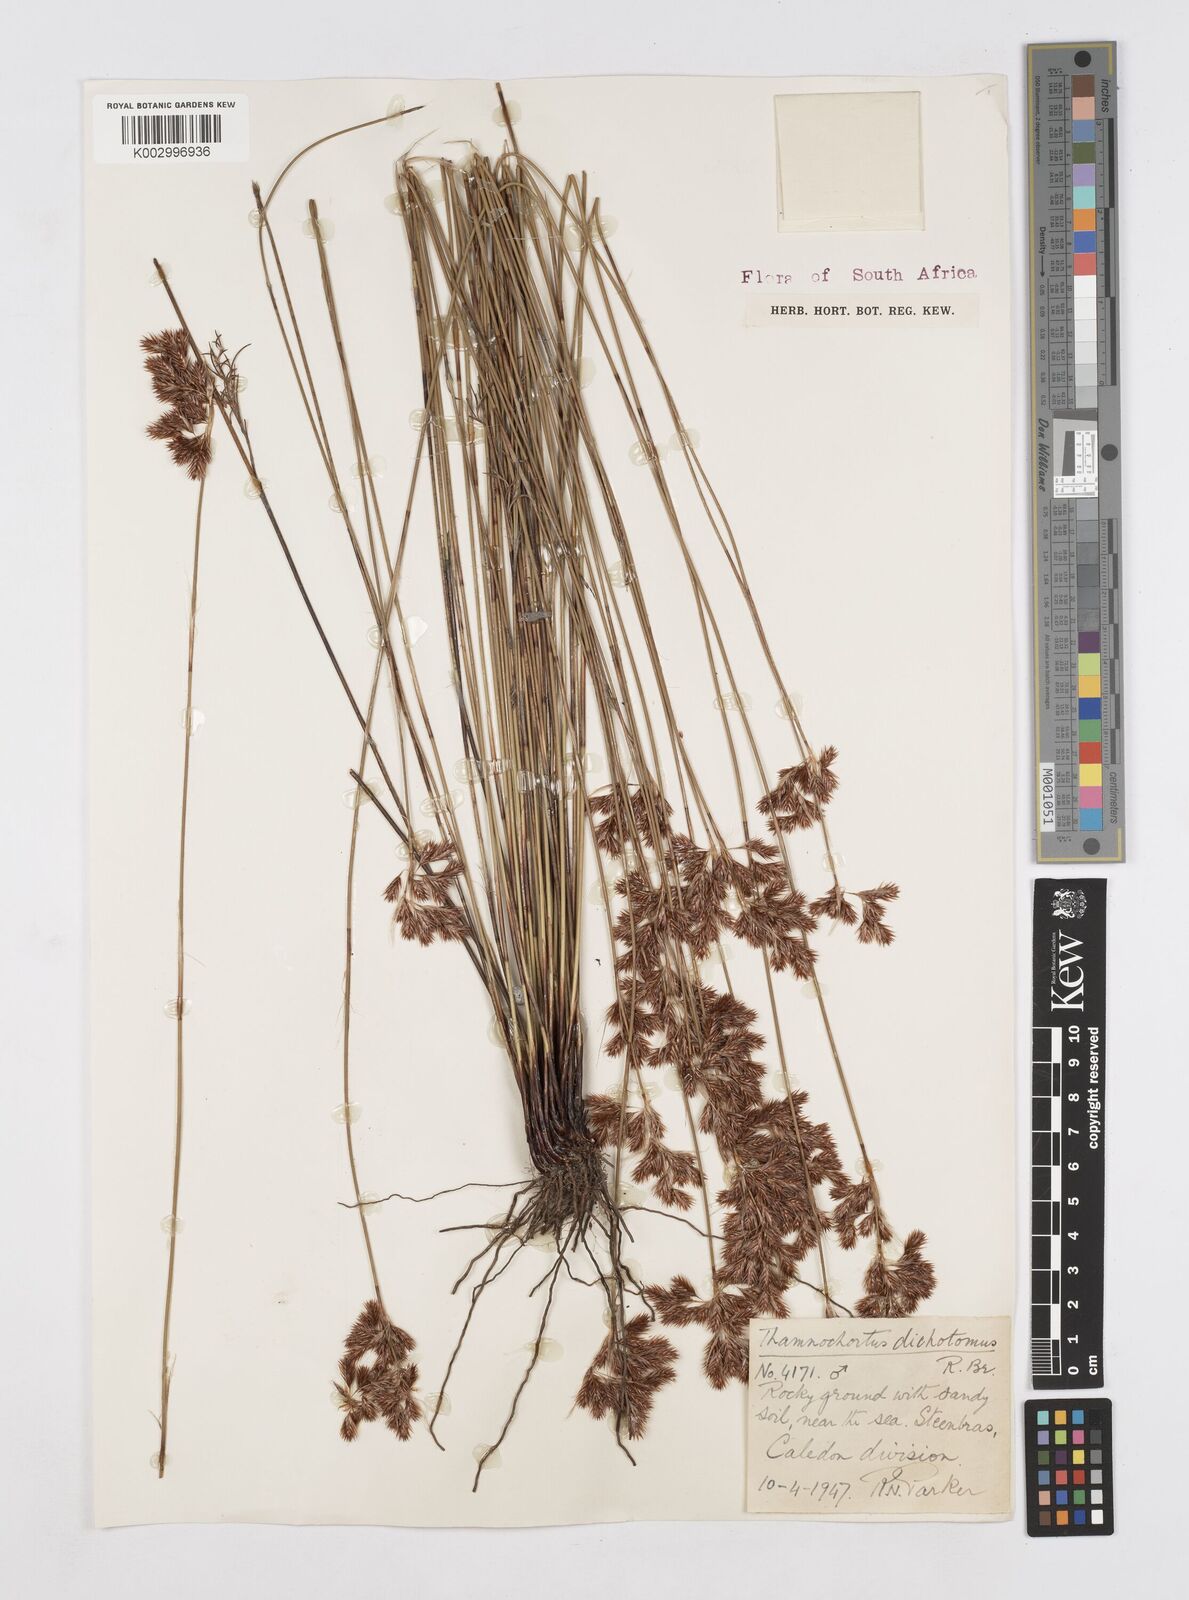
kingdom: Plantae
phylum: Tracheophyta
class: Liliopsida
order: Poales
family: Restionaceae
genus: Thamnochortus
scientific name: Thamnochortus lucens
